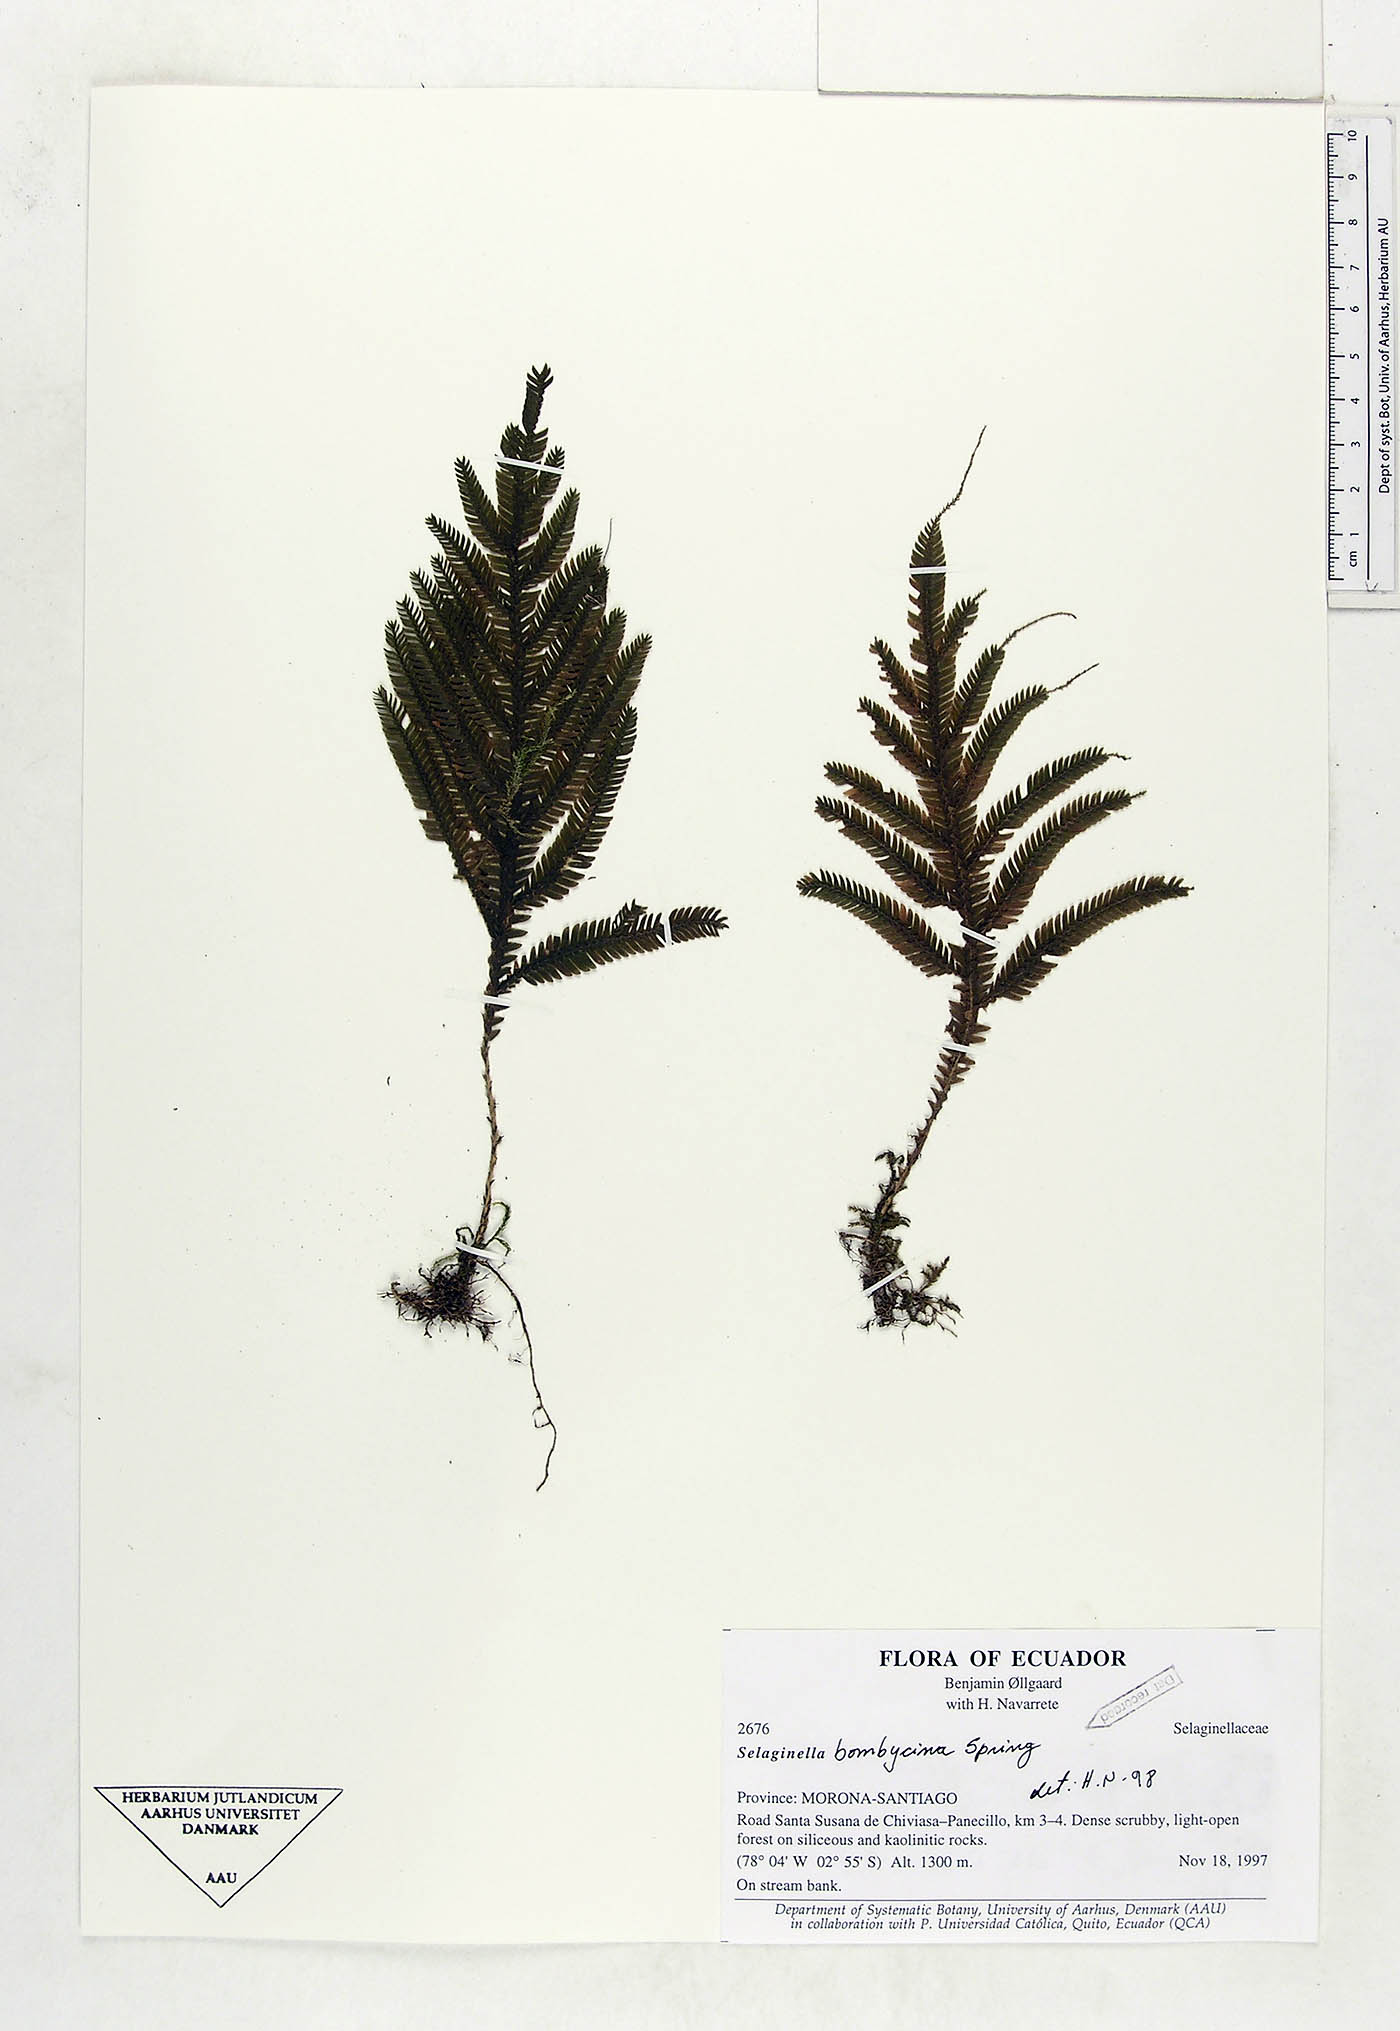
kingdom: Plantae
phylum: Tracheophyta
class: Lycopodiopsida
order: Selaginellales
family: Selaginellaceae
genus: Selaginella
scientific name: Selaginella bombycina
